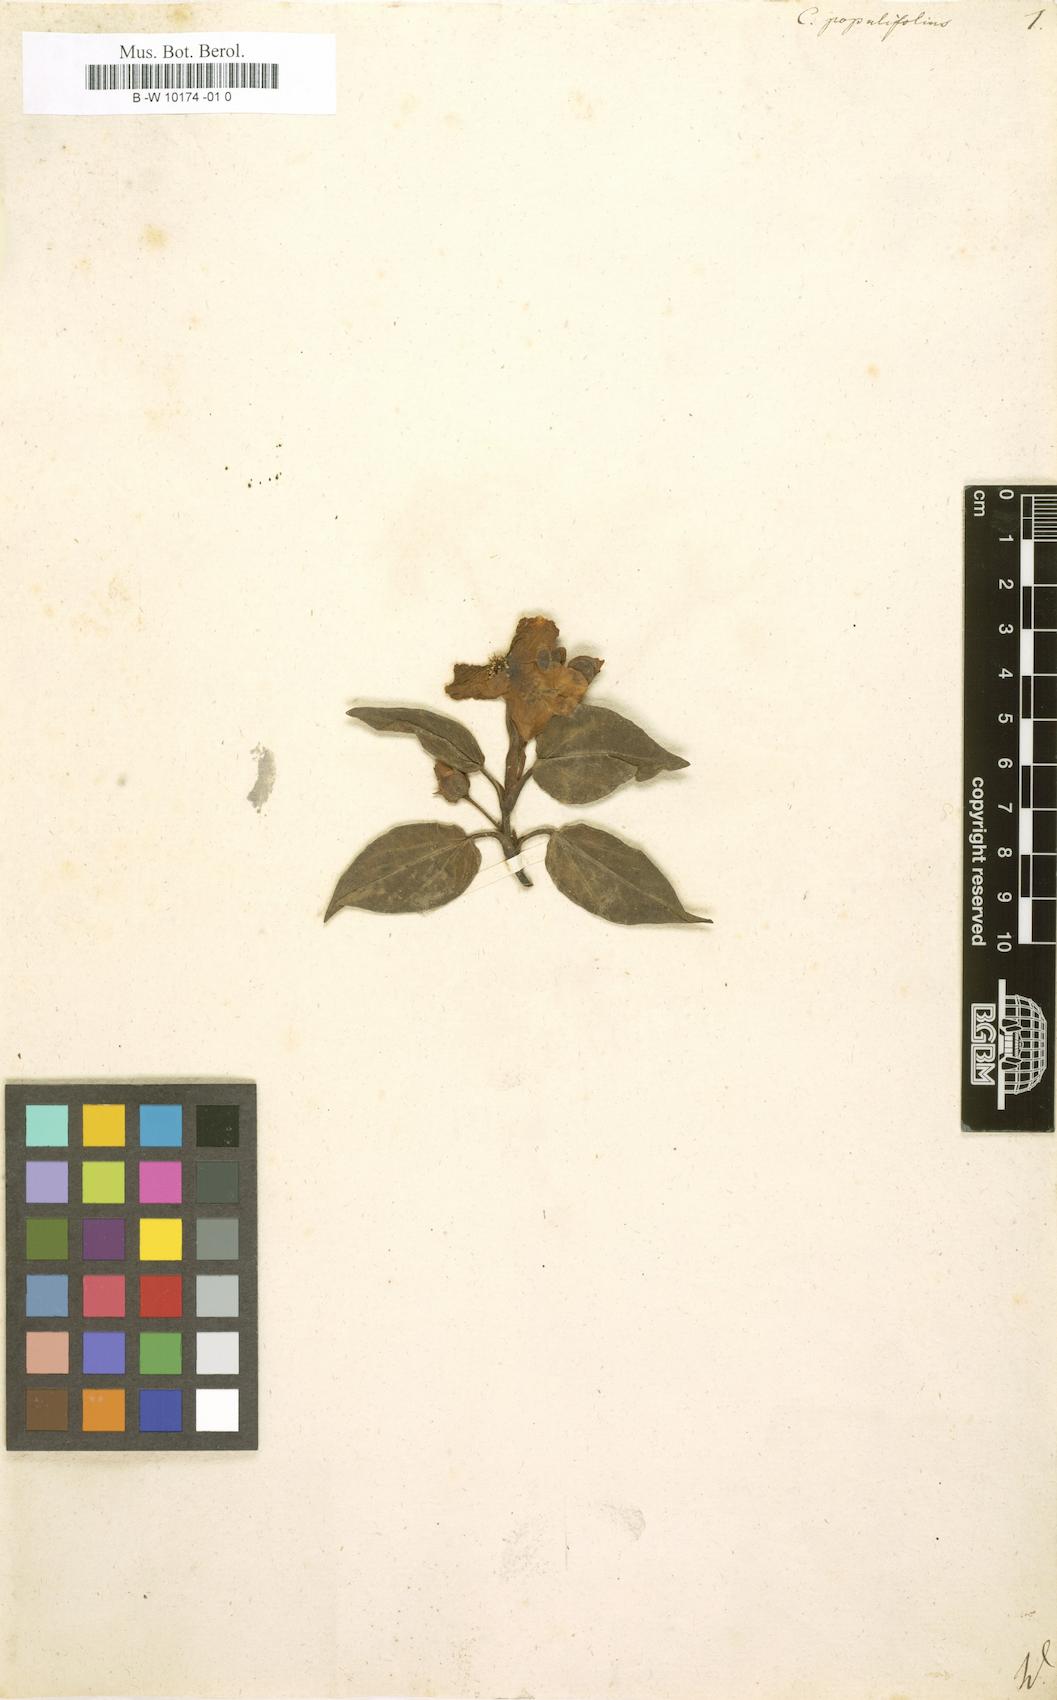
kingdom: Plantae
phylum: Tracheophyta
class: Magnoliopsida
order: Malvales
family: Cistaceae
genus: Cistus
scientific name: Cistus populifolius
